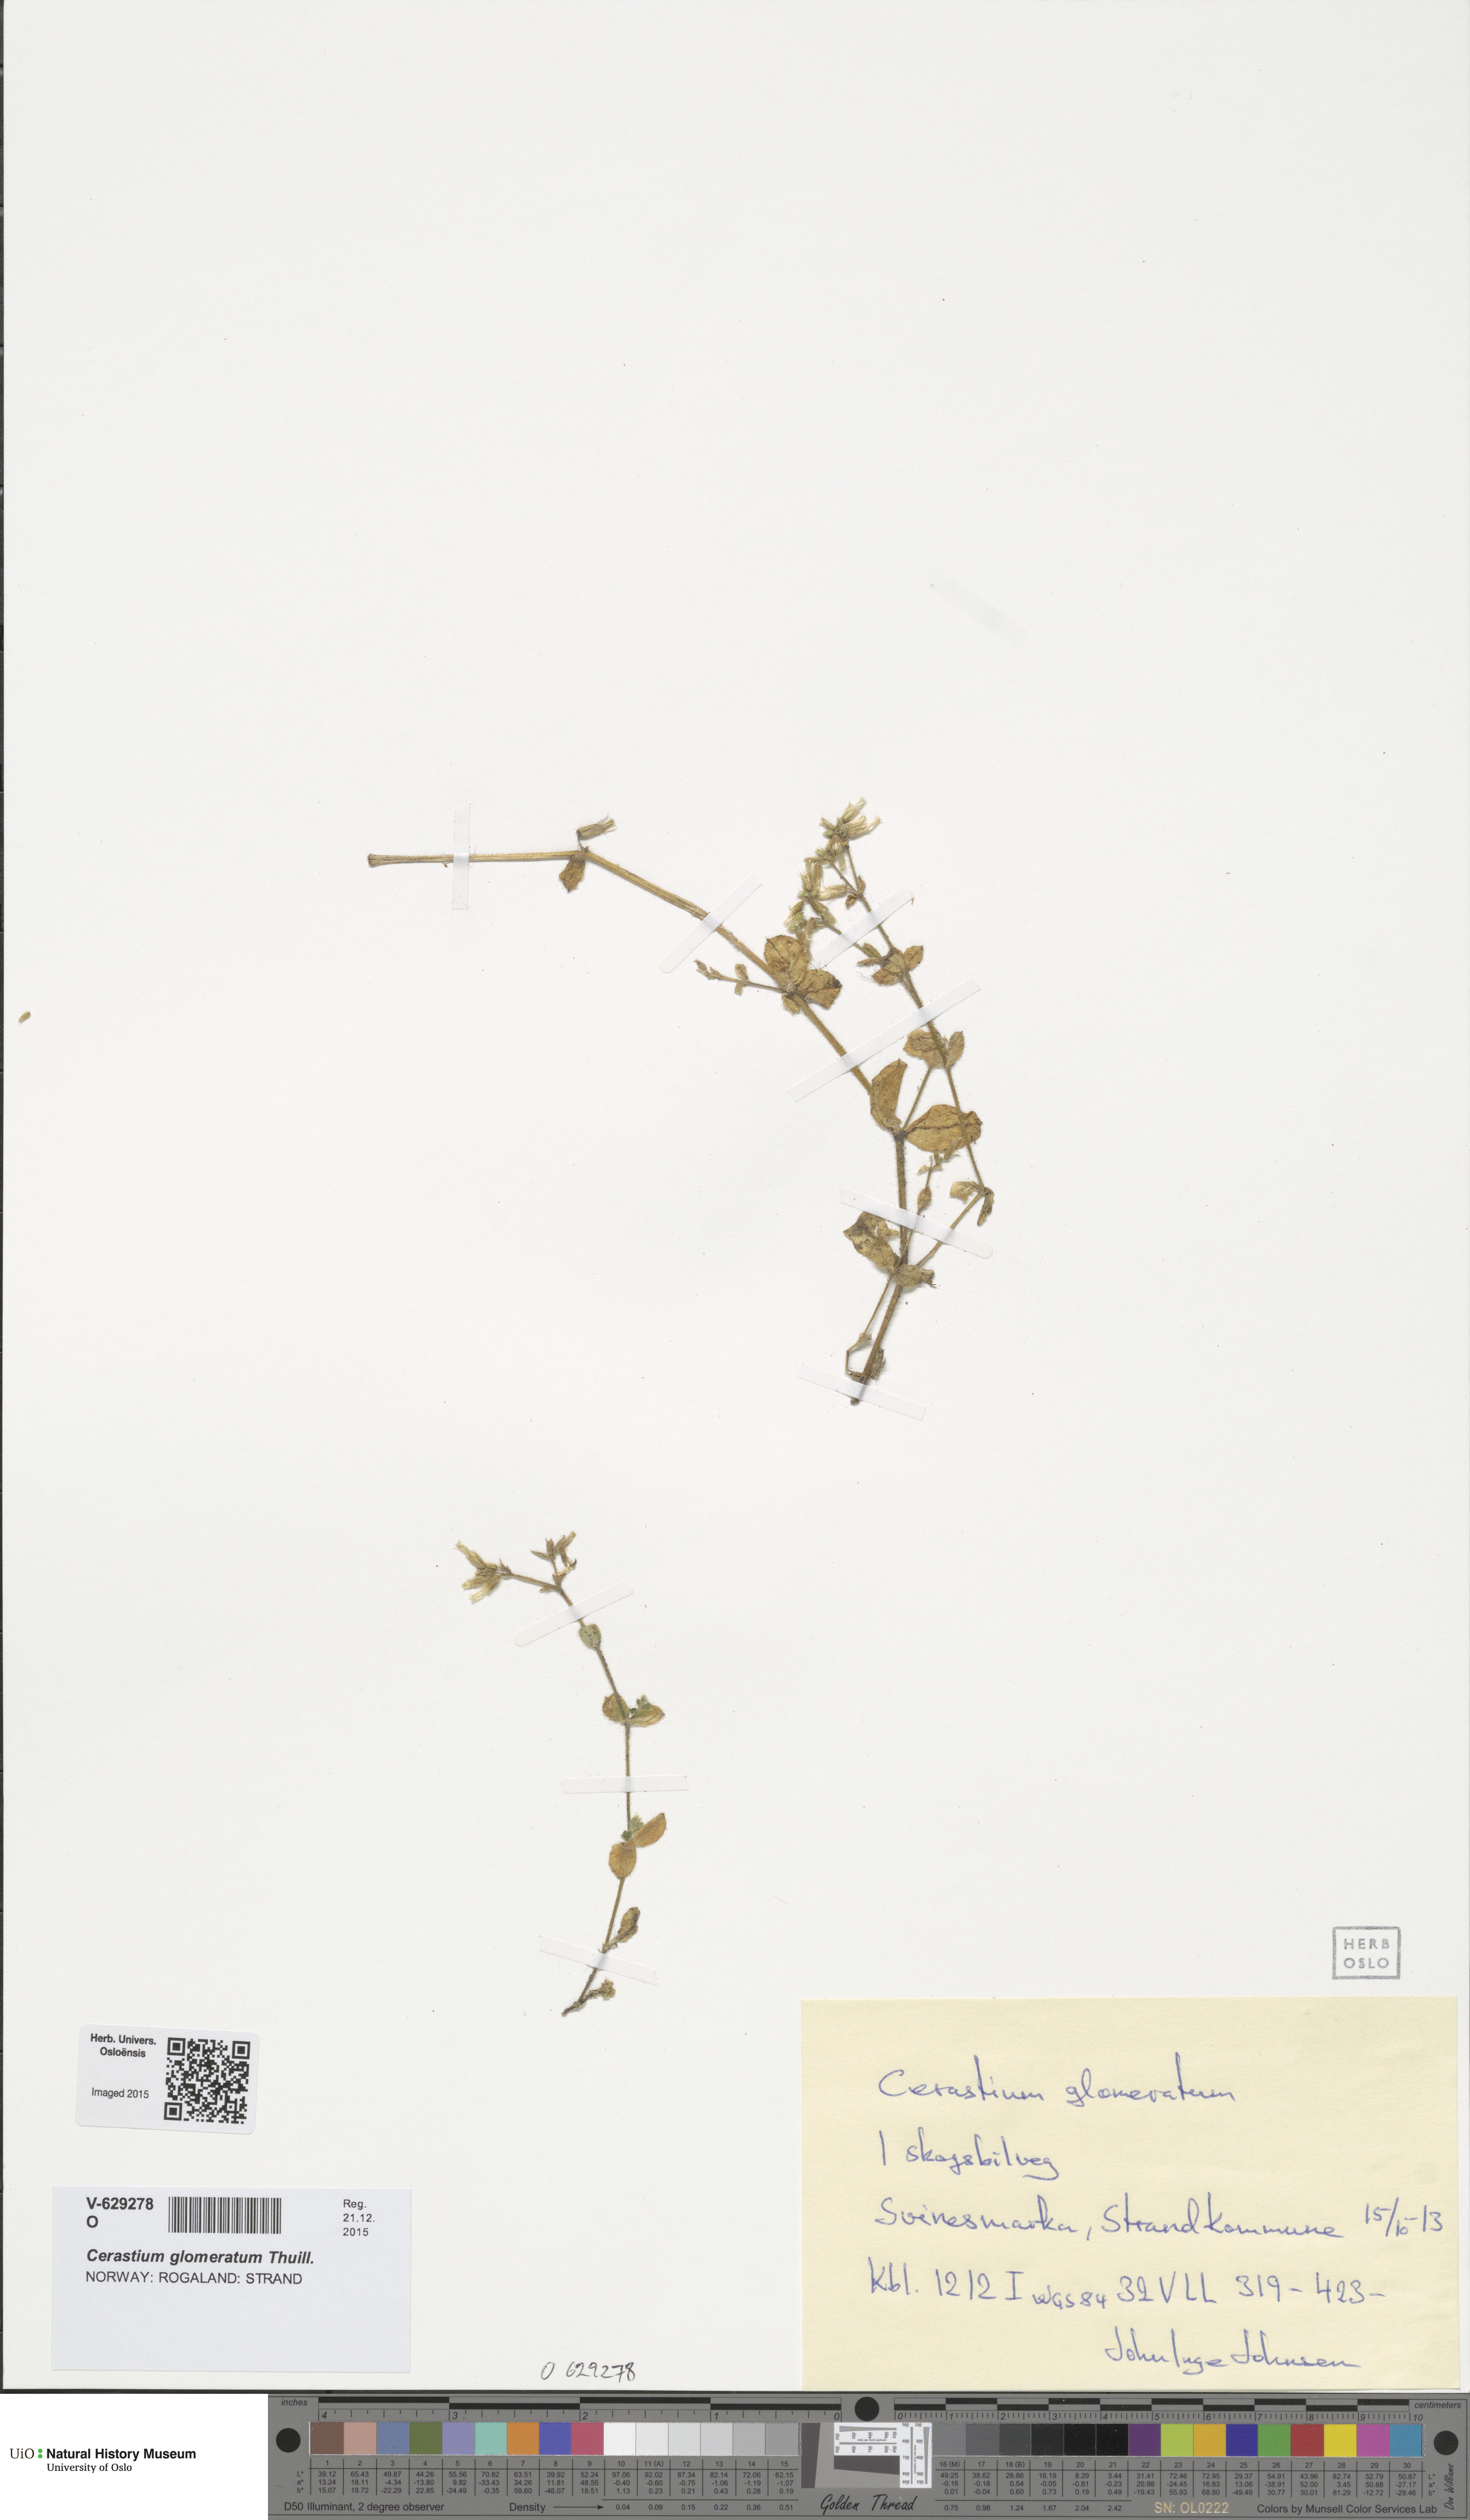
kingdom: Plantae
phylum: Tracheophyta
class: Magnoliopsida
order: Caryophyllales
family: Caryophyllaceae
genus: Cerastium
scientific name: Cerastium glomeratum
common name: Sticky chickweed
